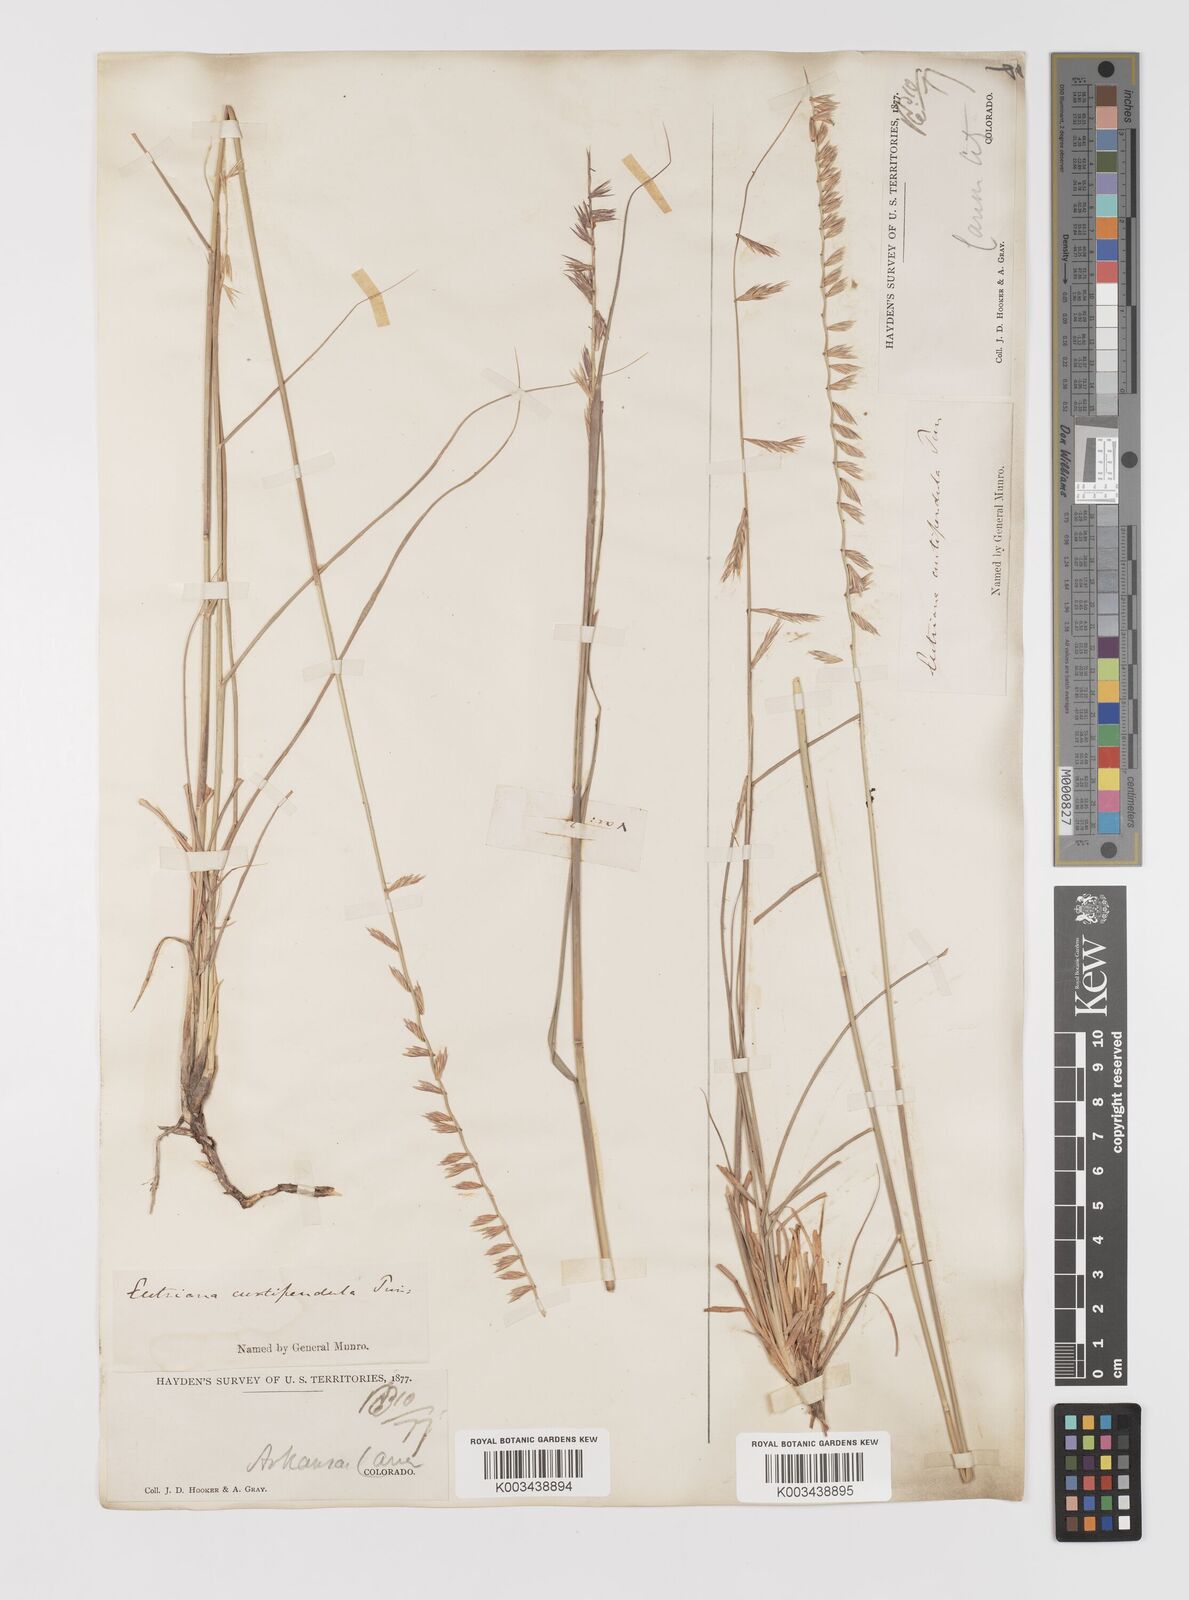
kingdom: Plantae
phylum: Tracheophyta
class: Liliopsida
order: Poales
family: Poaceae
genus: Bouteloua
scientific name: Bouteloua curtipendula
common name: Side-oats grama
